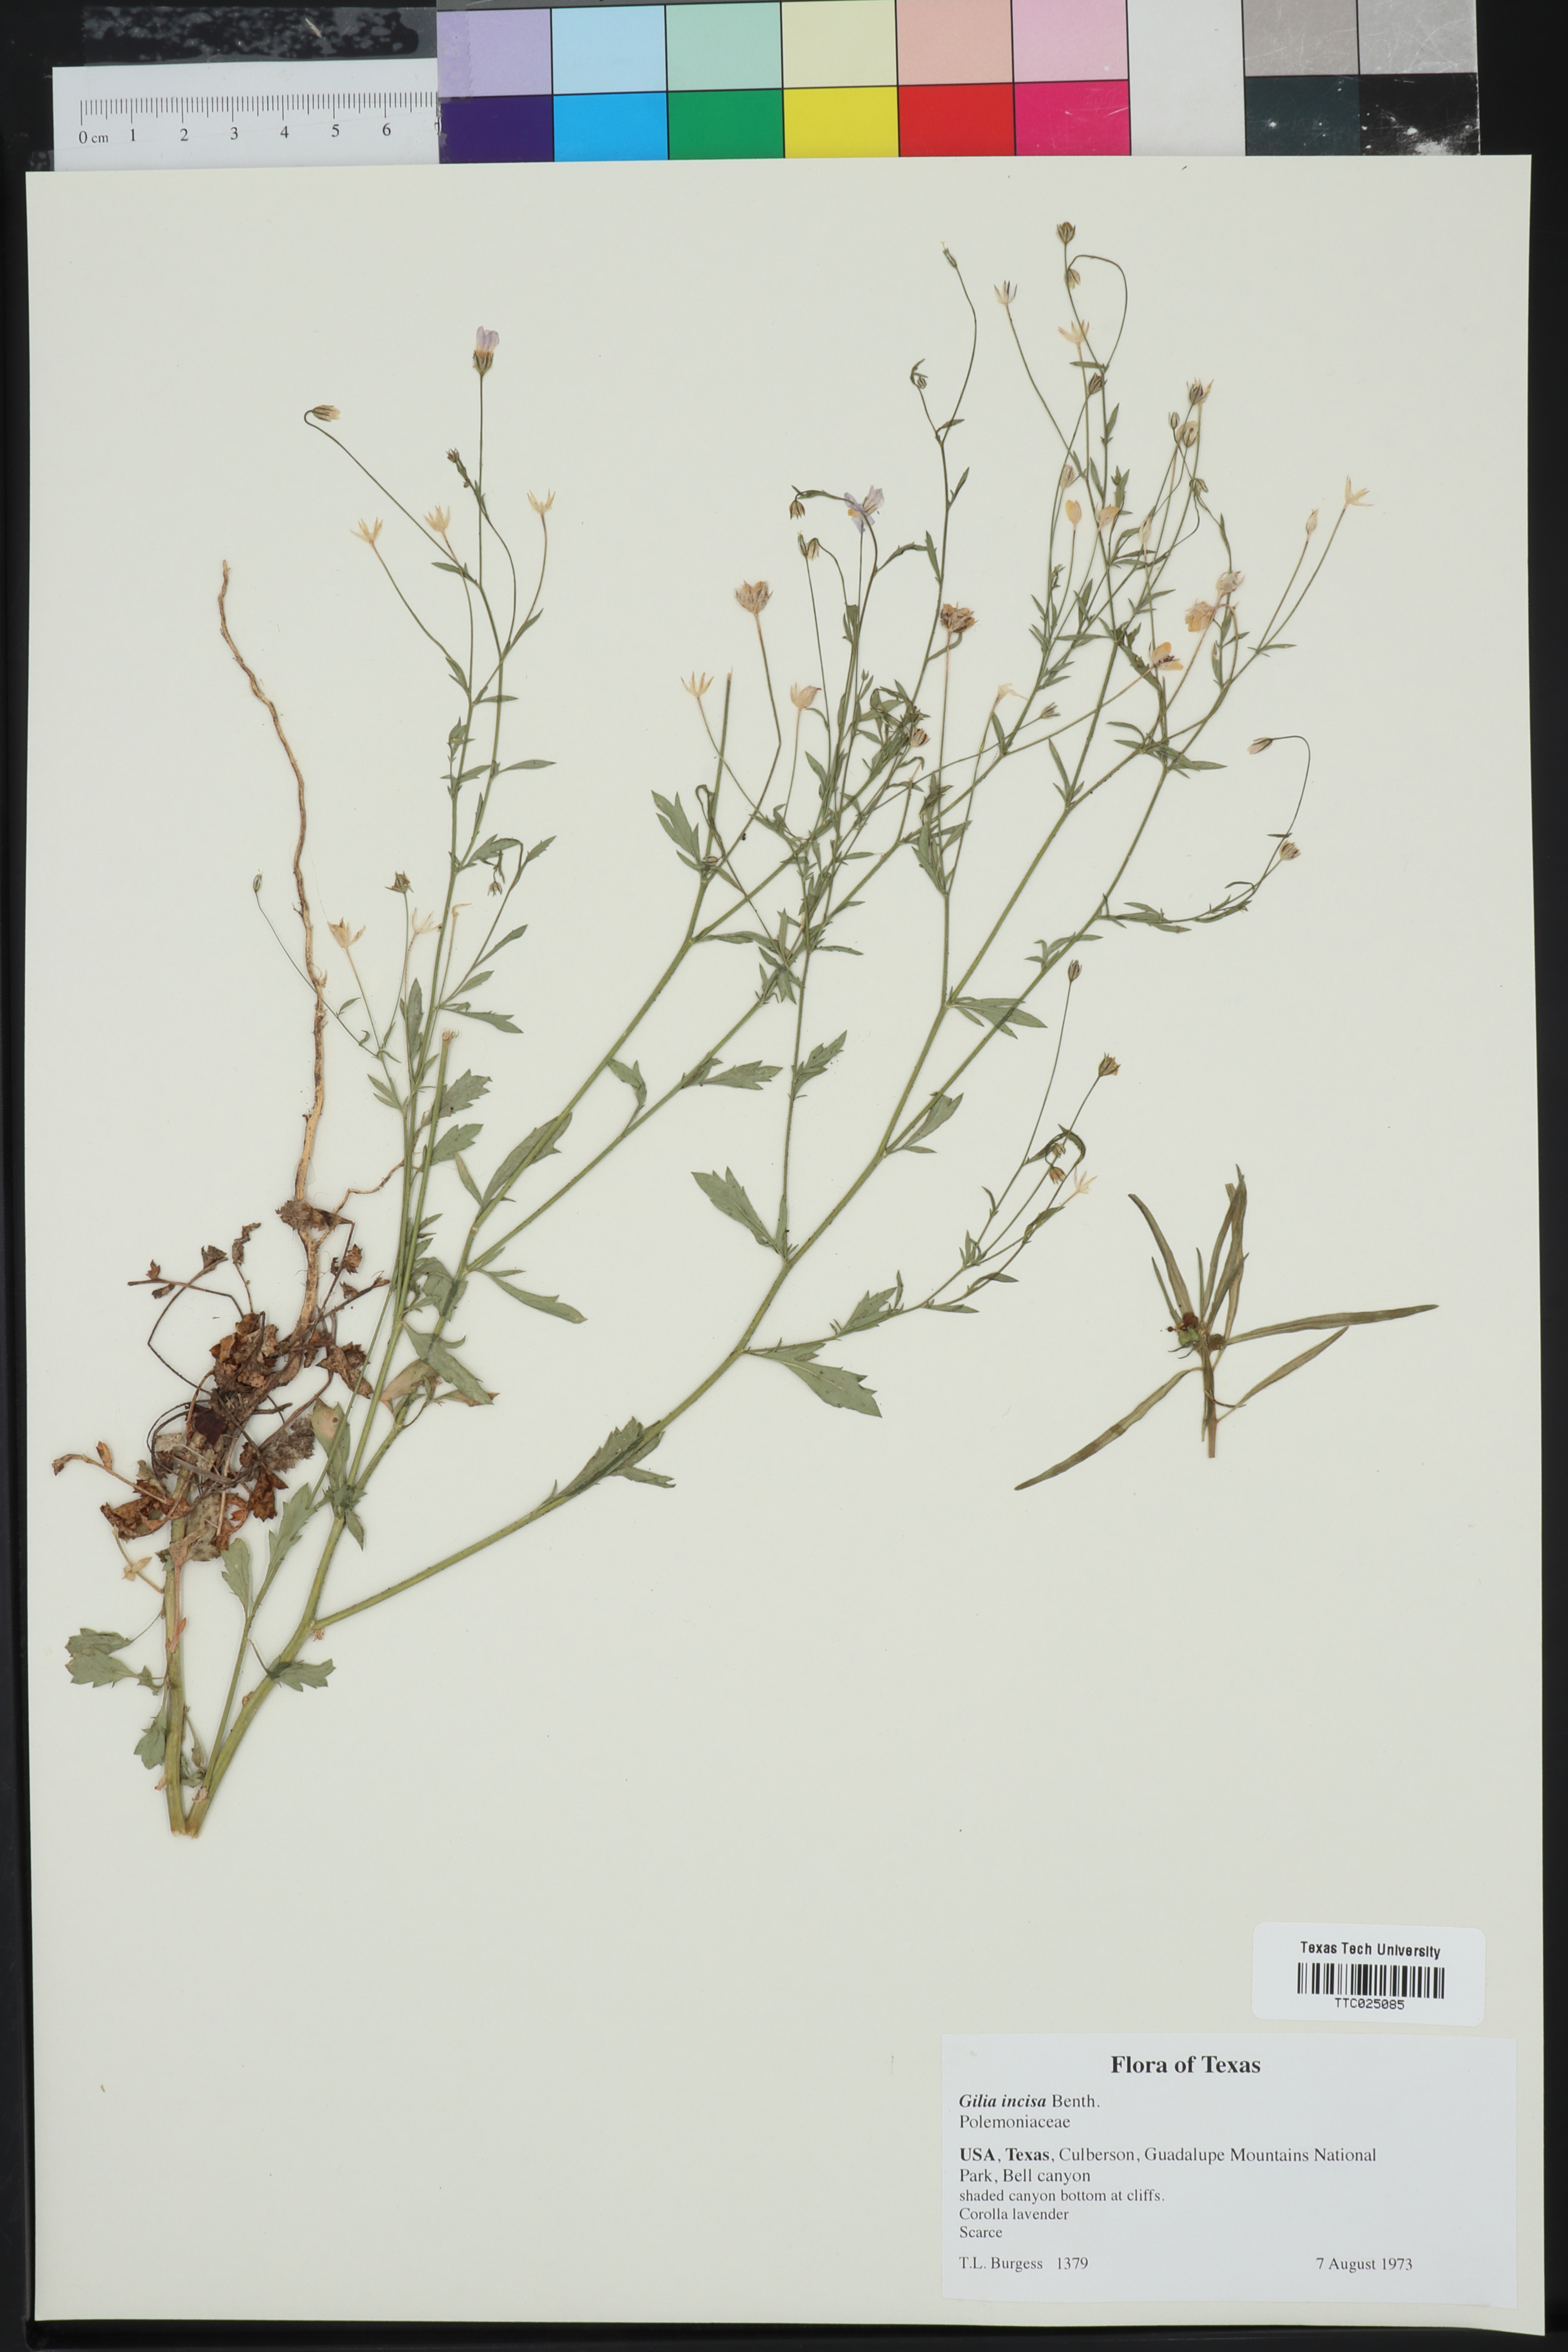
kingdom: Plantae
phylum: Tracheophyta
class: Magnoliopsida
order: Ericales
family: Polemoniaceae
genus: Giliastrum
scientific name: Giliastrum incisum
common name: Splitleaf gilia
